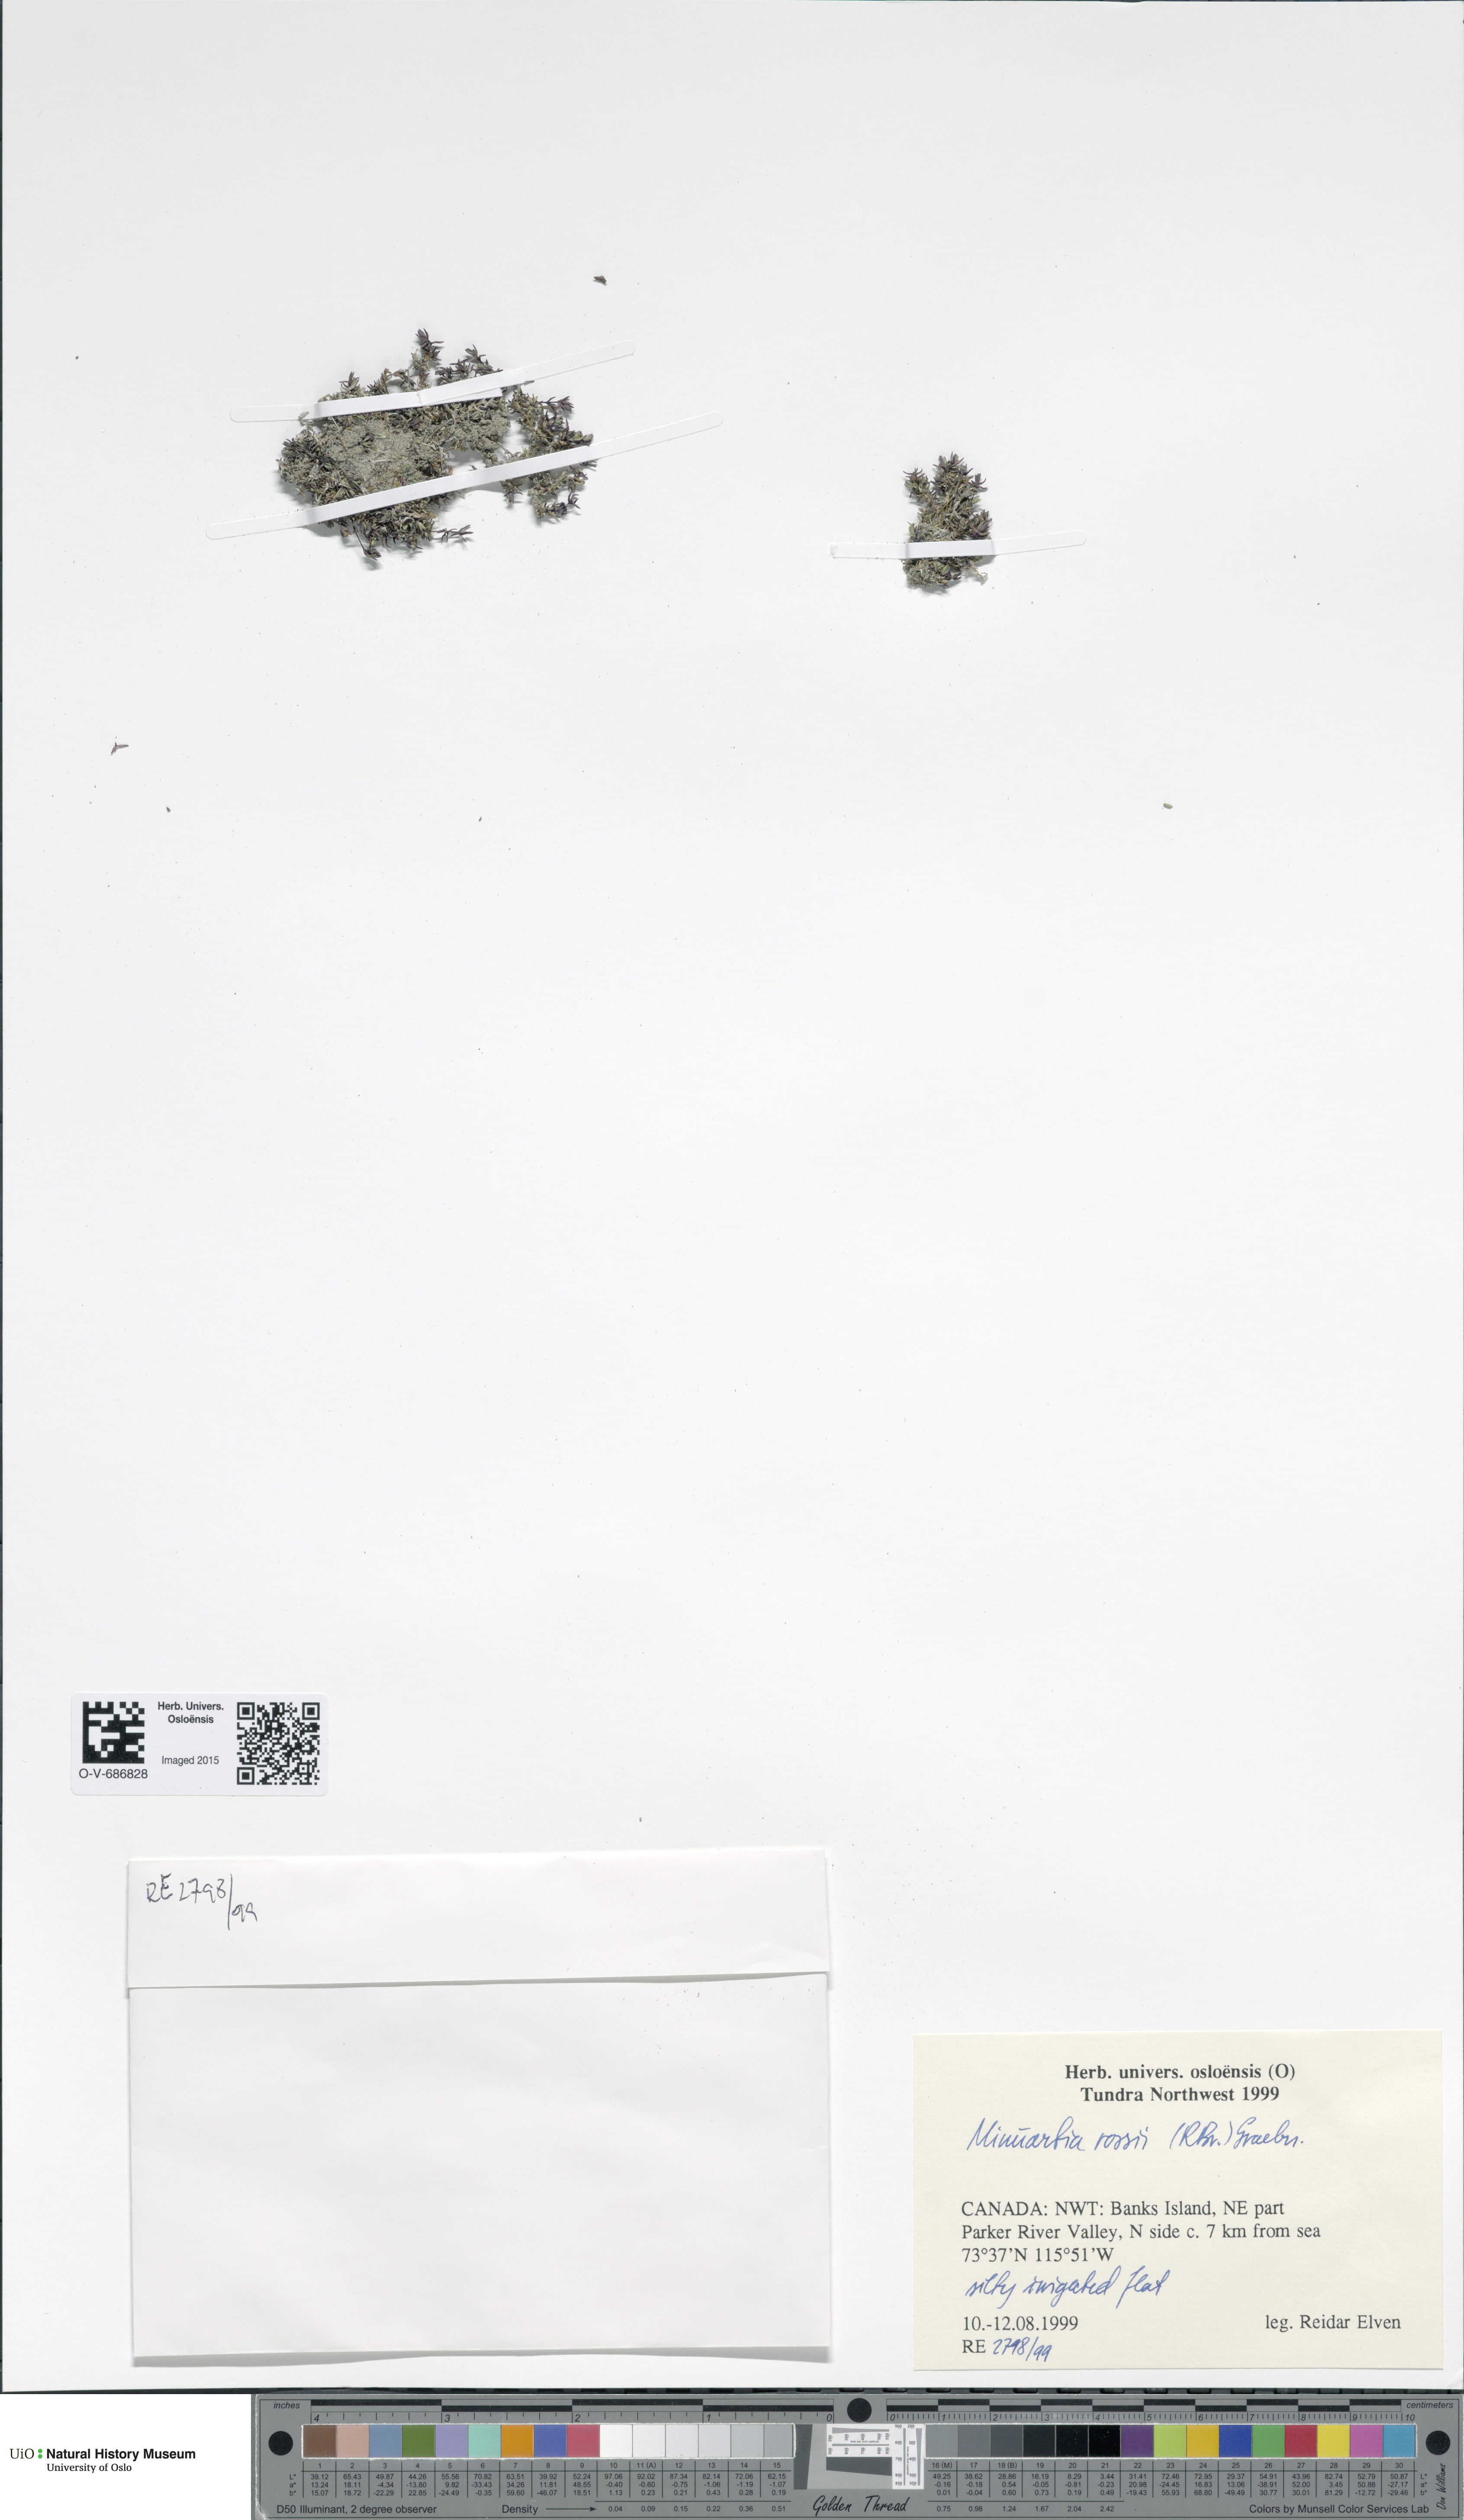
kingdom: Plantae
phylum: Tracheophyta
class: Magnoliopsida
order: Caryophyllales
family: Caryophyllaceae
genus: Sabulina
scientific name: Sabulina rosei
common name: Ross' sandwort
